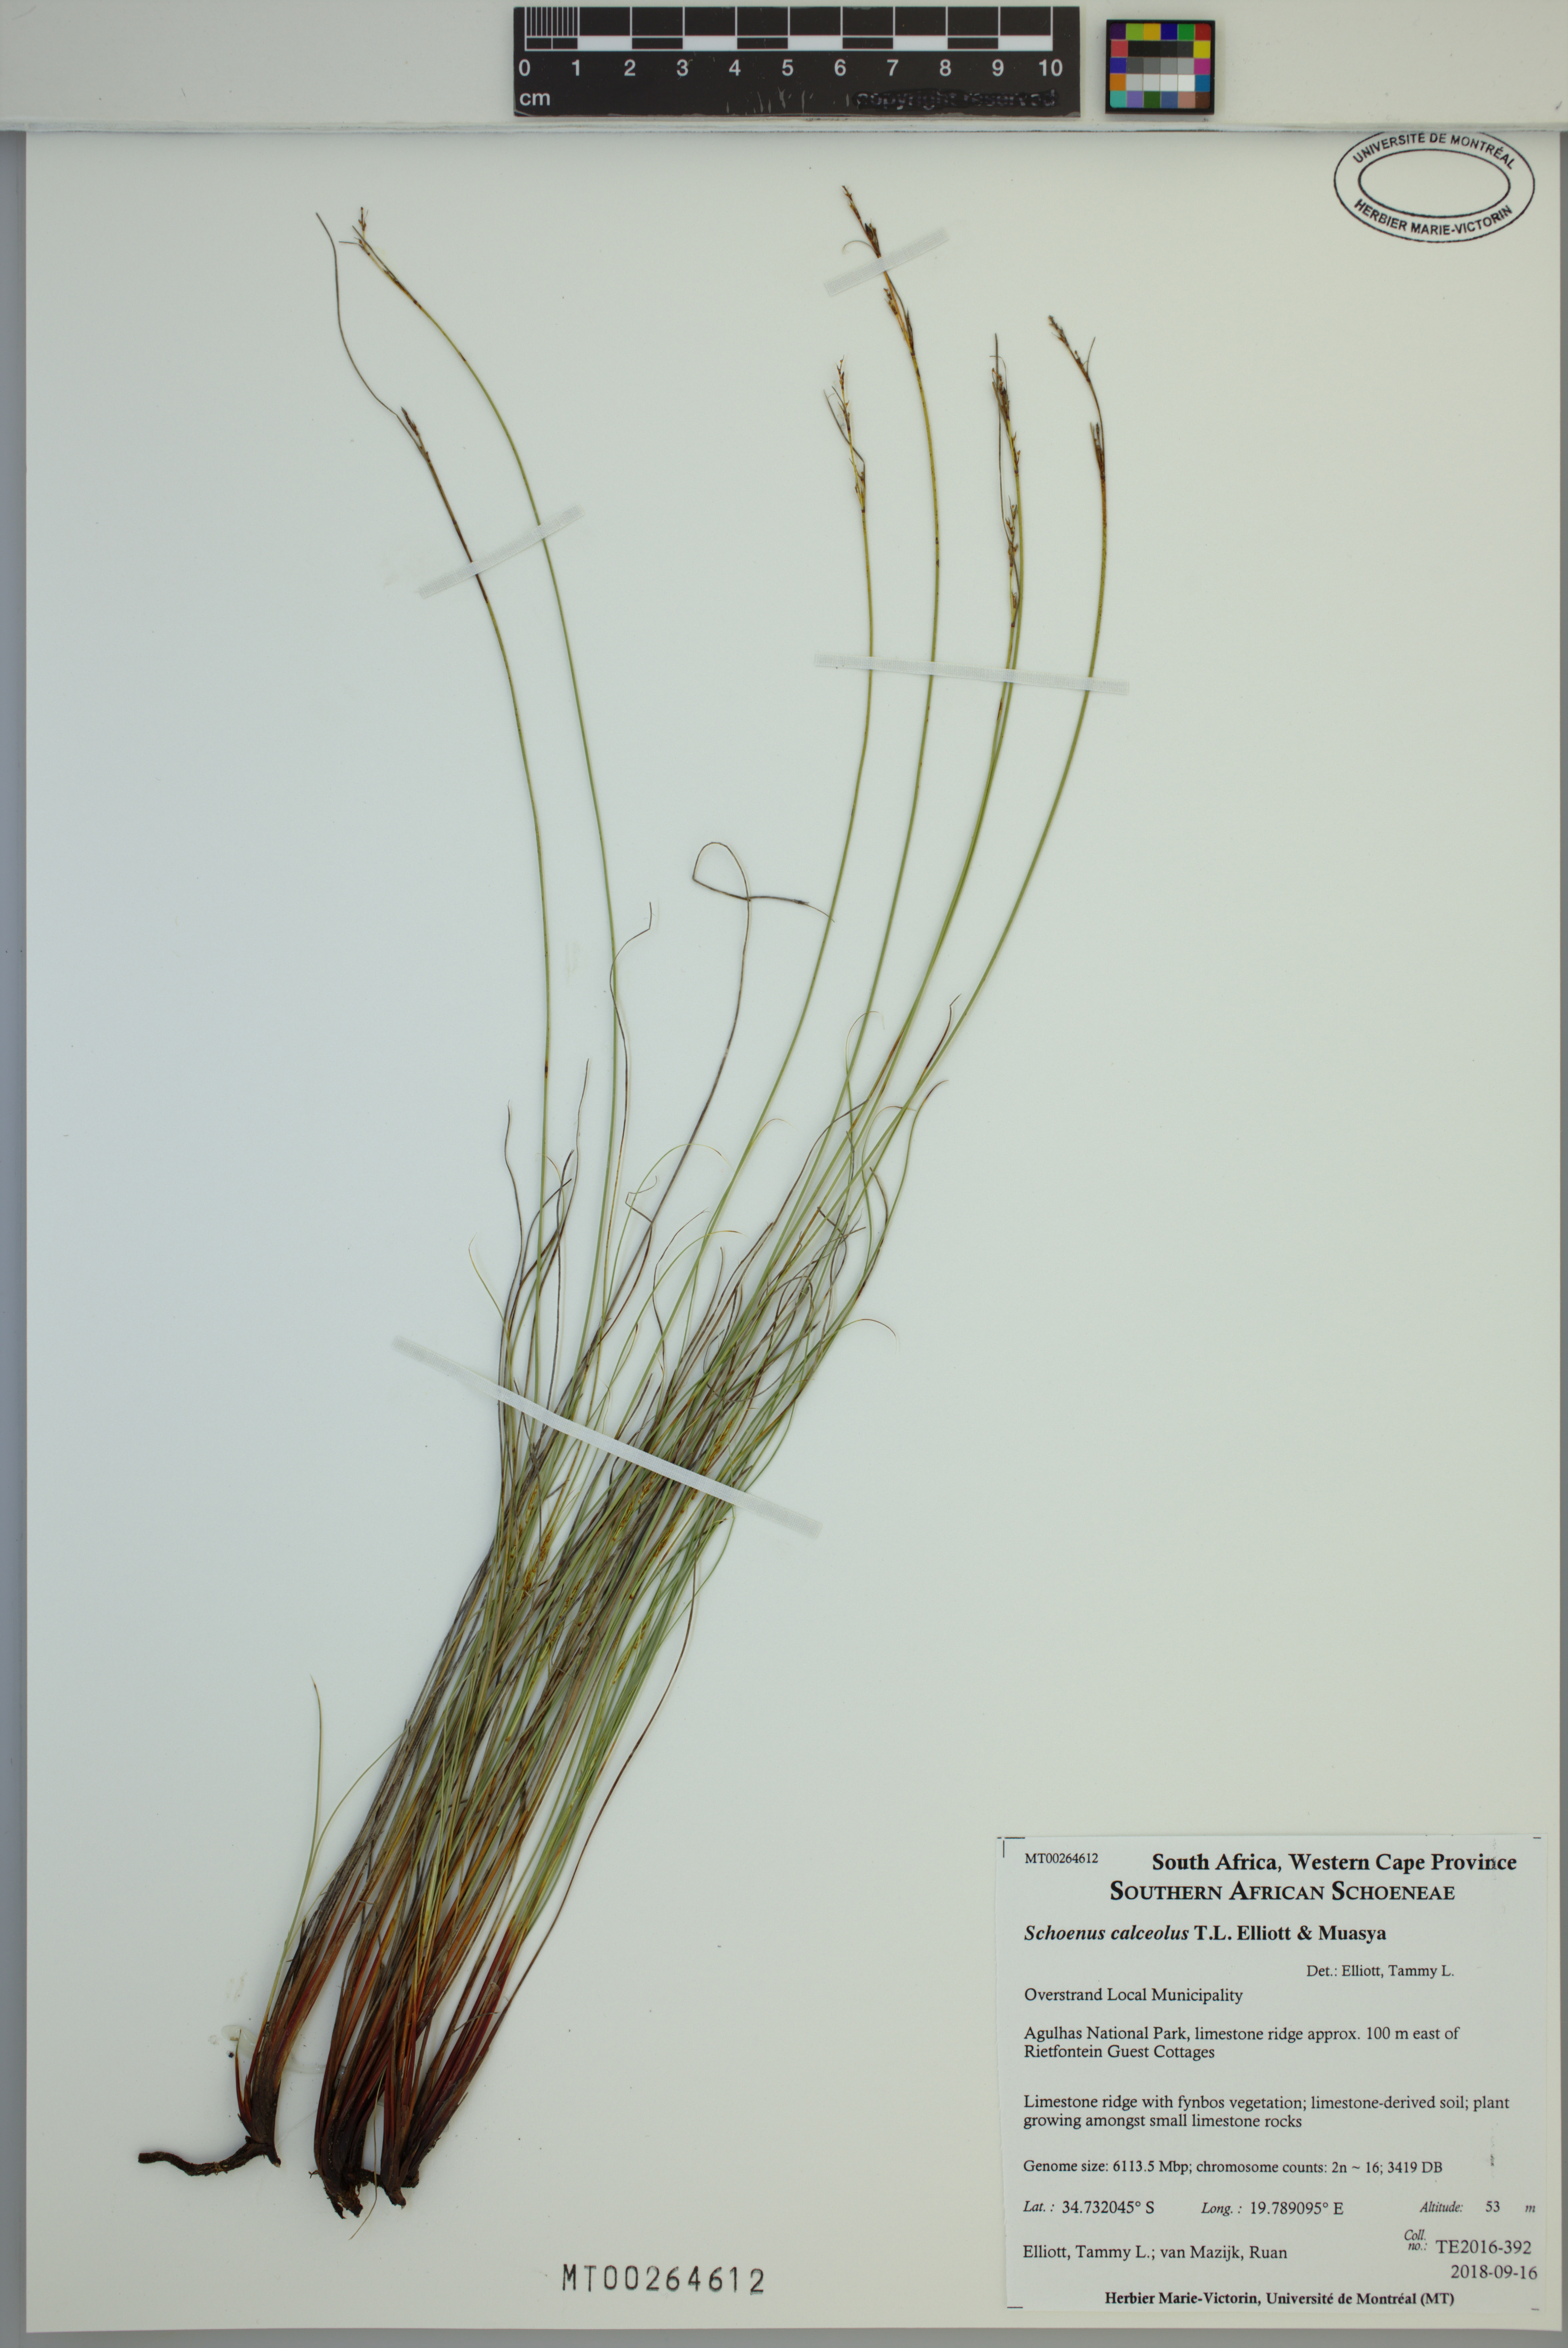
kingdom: Plantae
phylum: Tracheophyta
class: Liliopsida
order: Poales
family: Cyperaceae
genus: Schoenus
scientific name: Schoenus calceolus
